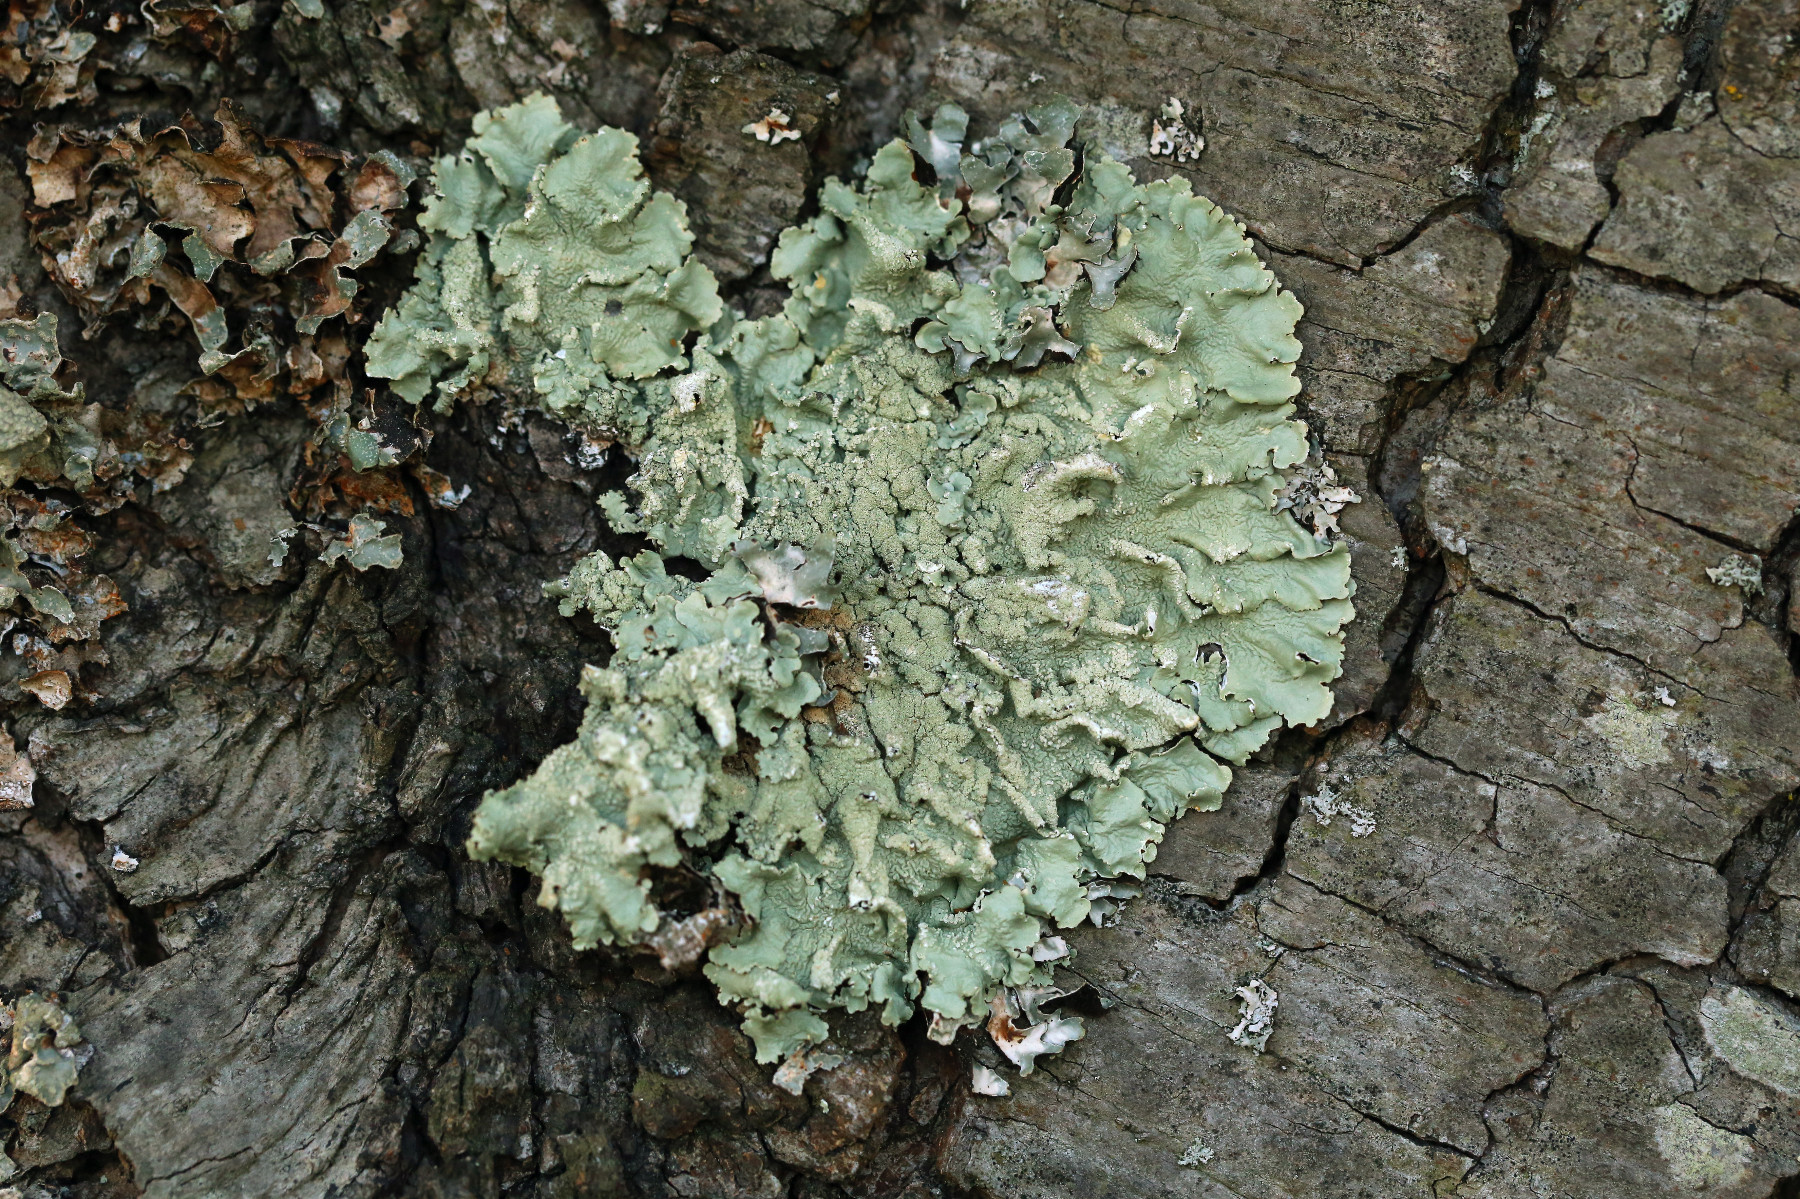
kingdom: Fungi
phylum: Ascomycota
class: Lecanoromycetes
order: Lecanorales
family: Parmeliaceae
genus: Flavoparmelia
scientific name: Flavoparmelia caperata
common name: gulgrøn skållav
